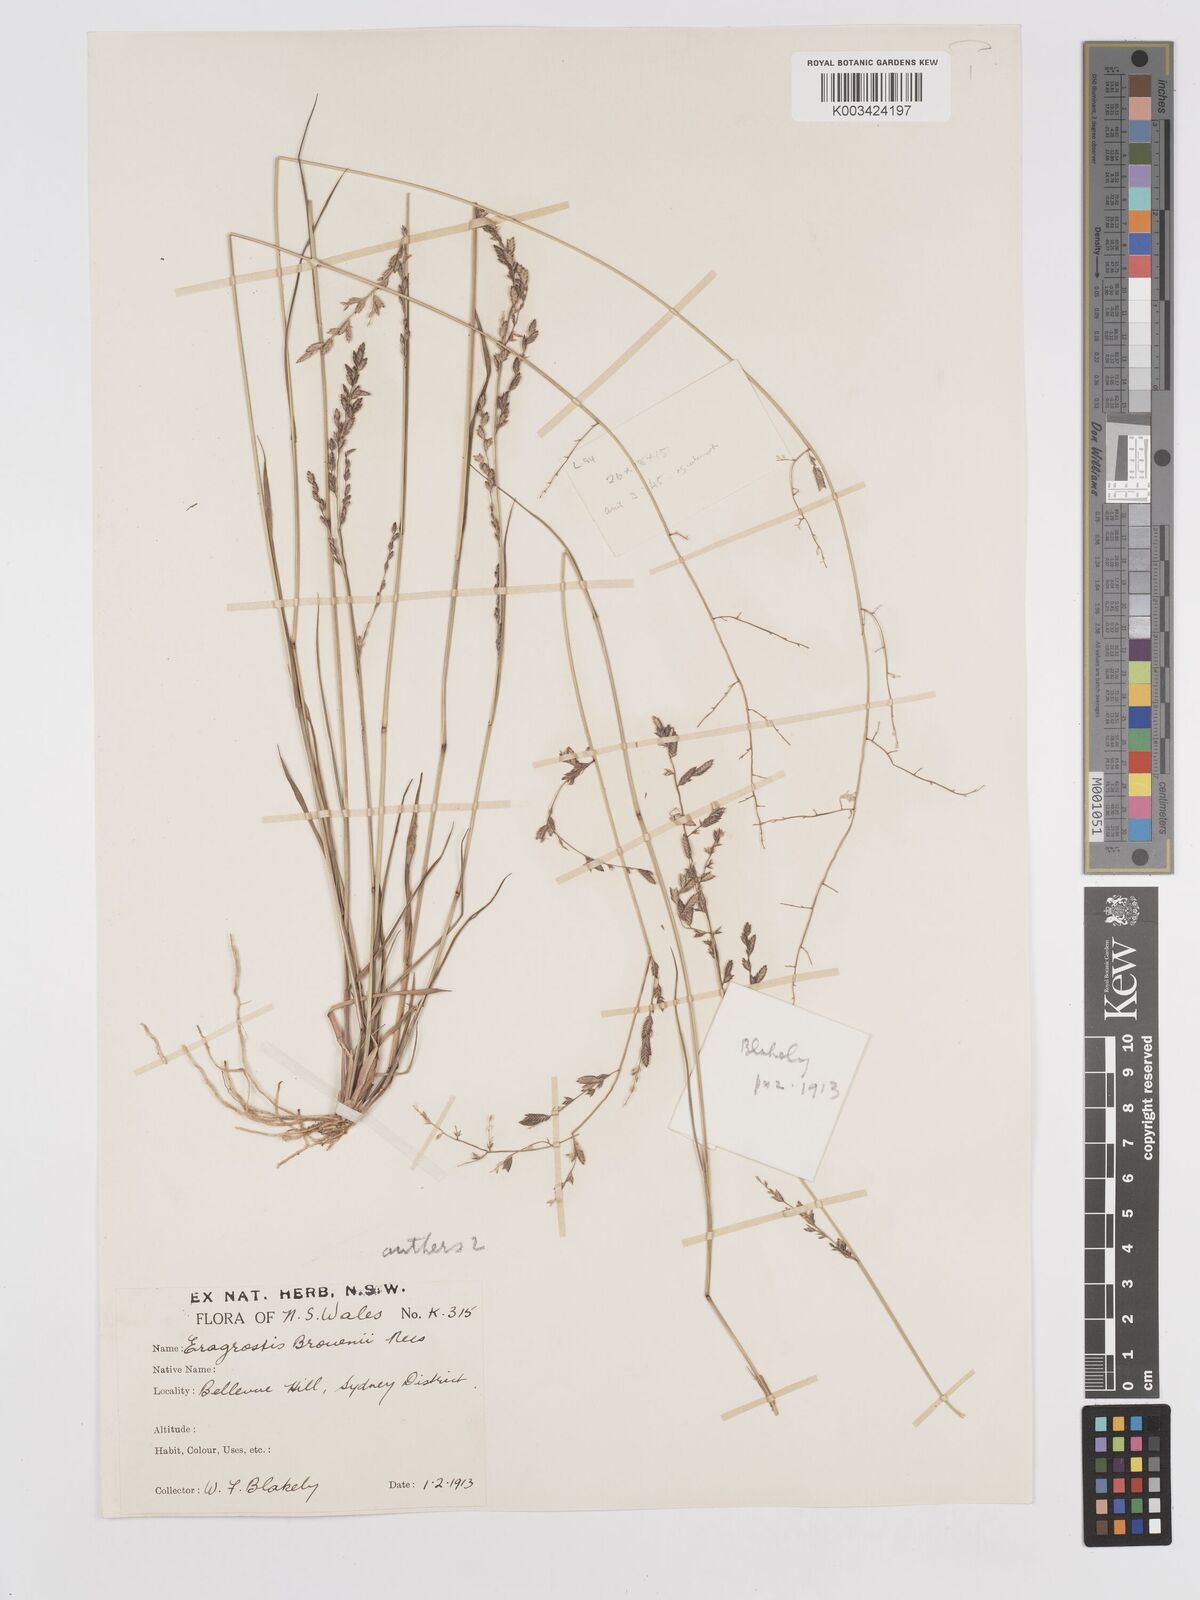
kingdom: Plantae
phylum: Tracheophyta
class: Liliopsida
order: Poales
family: Poaceae
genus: Eragrostis
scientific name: Eragrostis brownii
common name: Lovegrass
